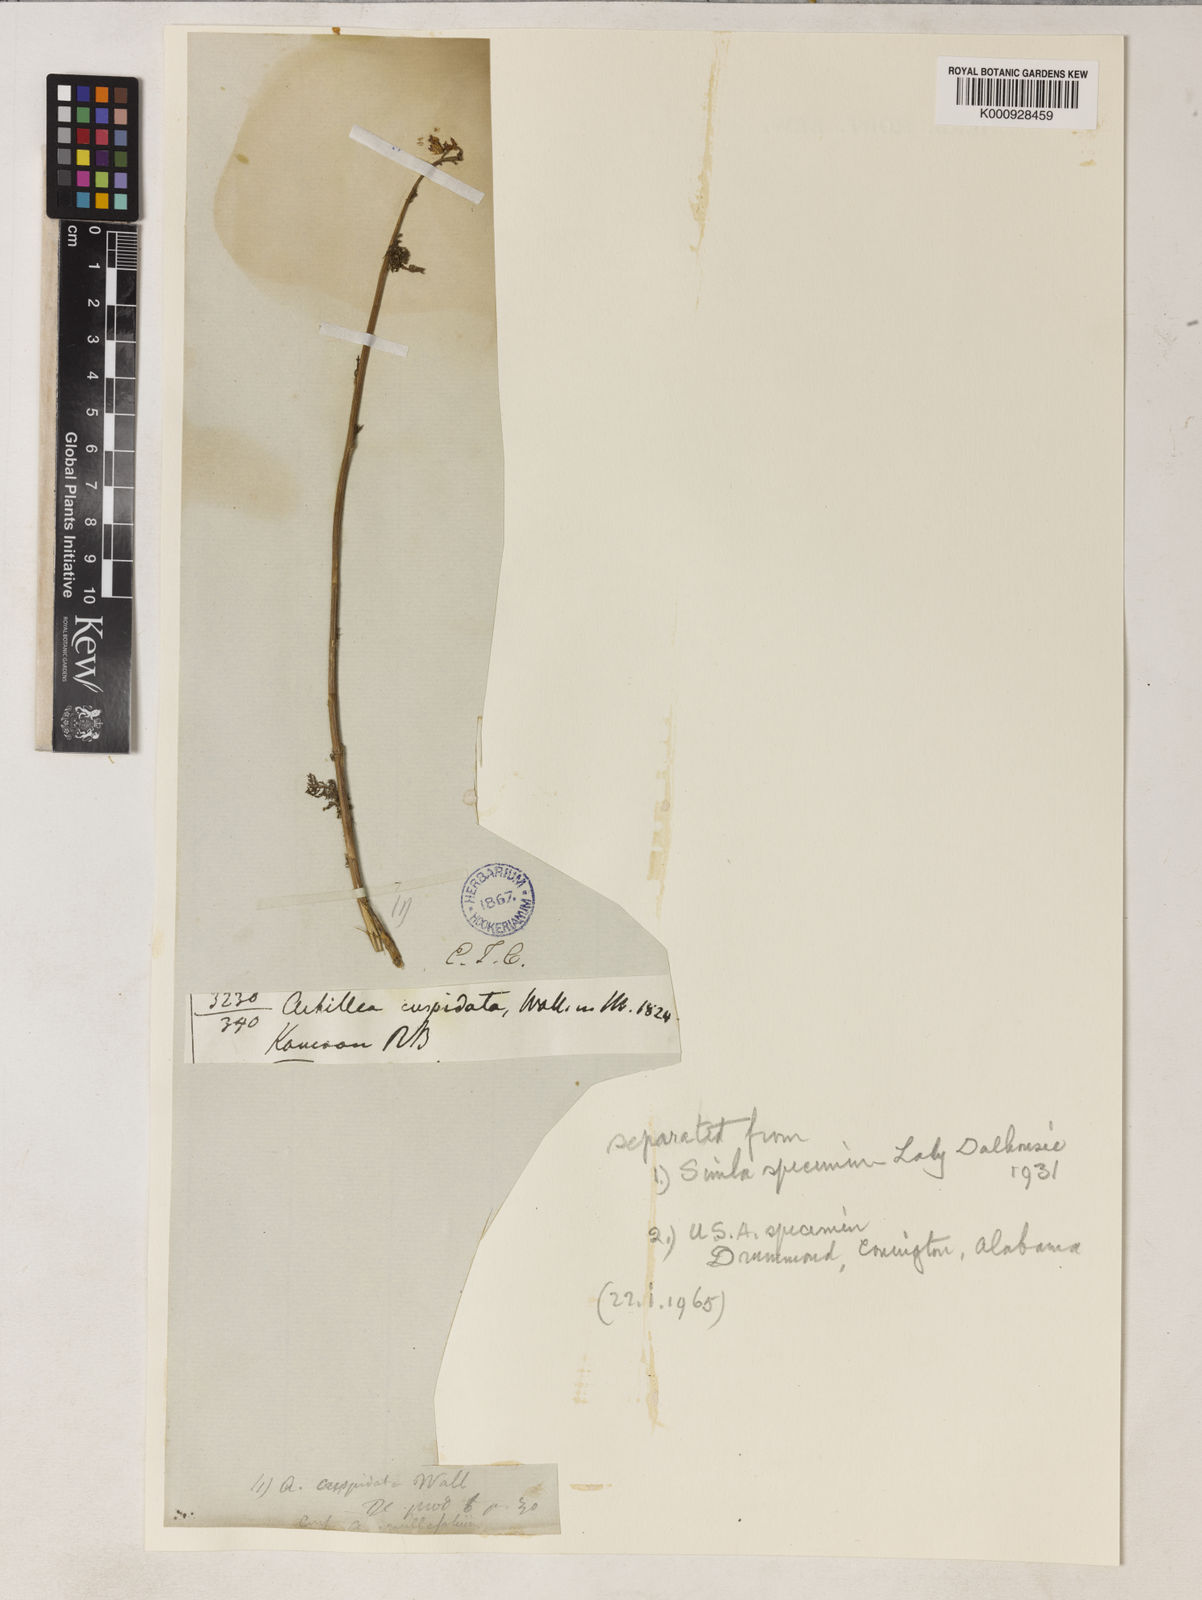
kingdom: Plantae
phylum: Tracheophyta
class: Magnoliopsida
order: Asterales
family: Asteraceae
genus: Achillea
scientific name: Achillea millefolium
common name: Yarrow
